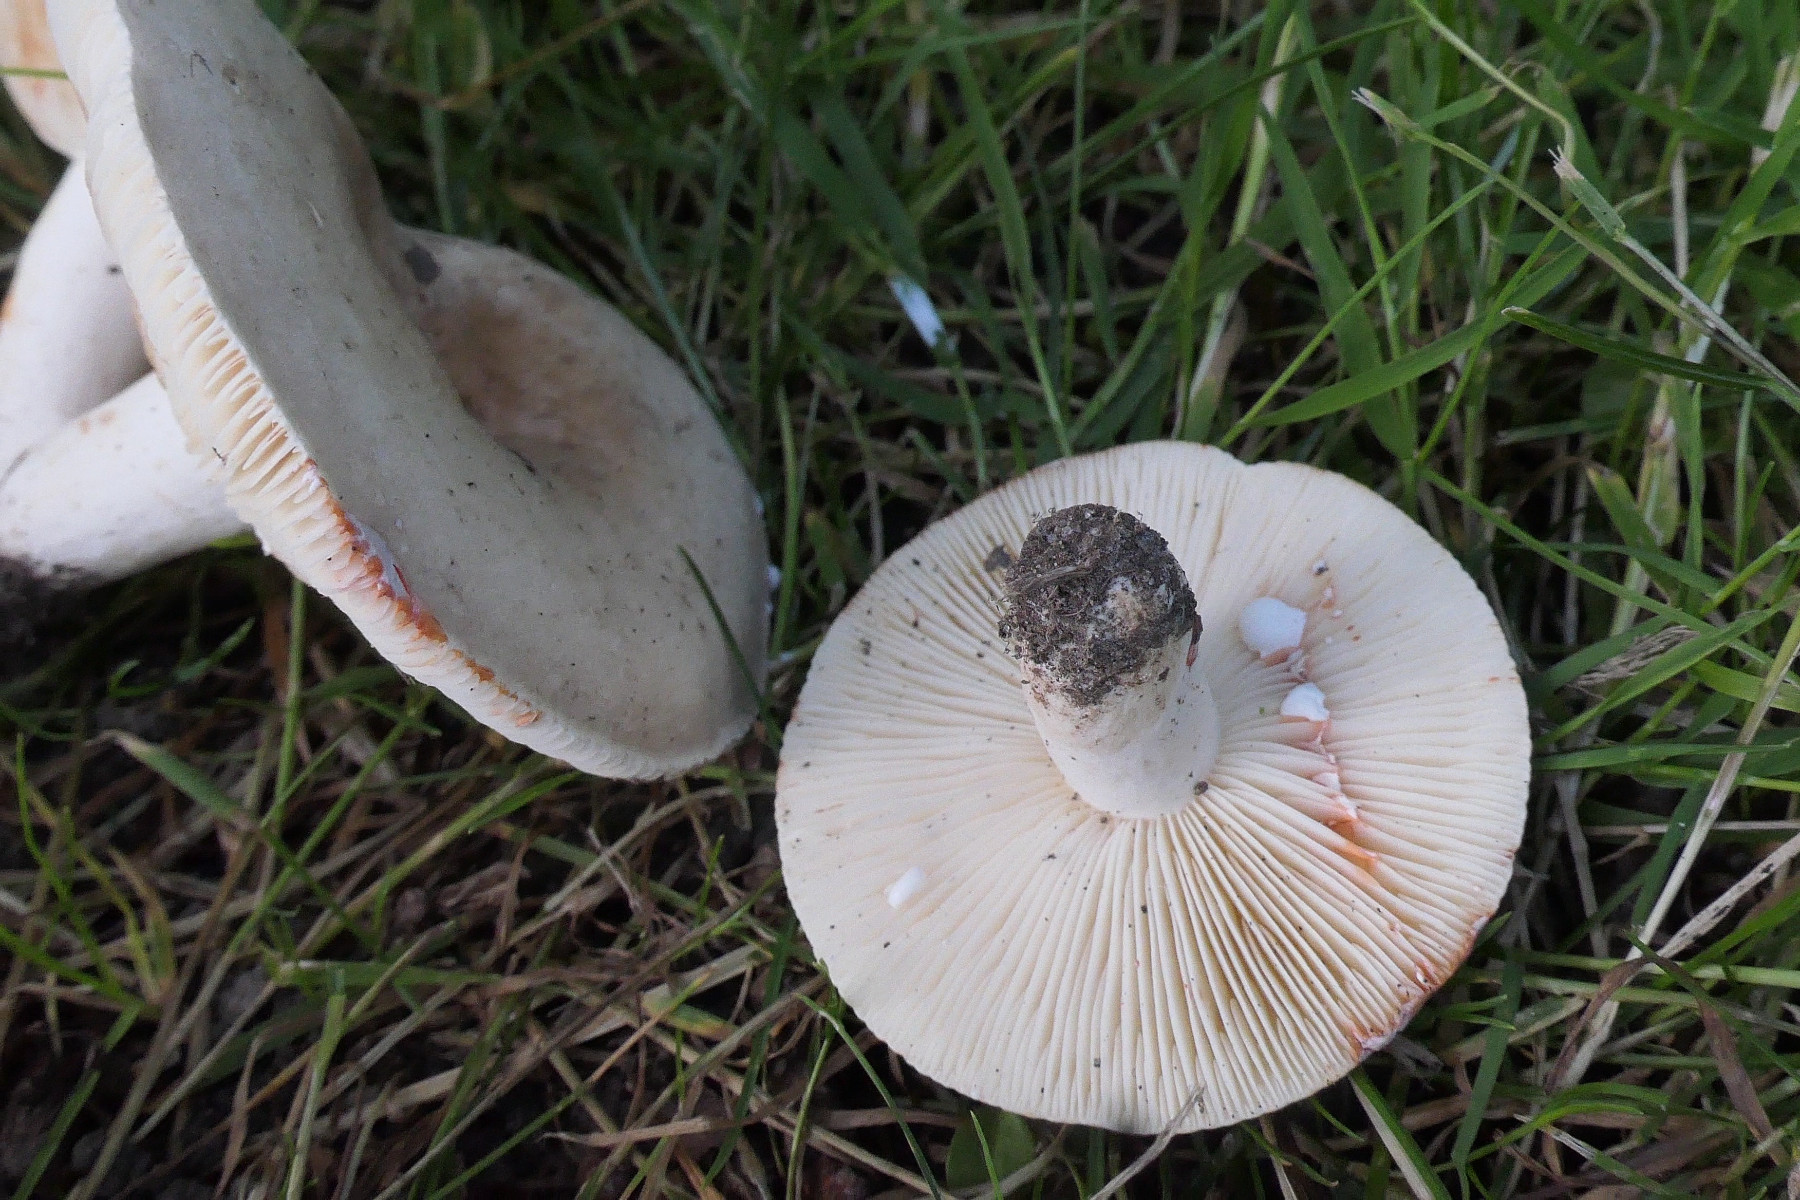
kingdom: Fungi
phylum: Basidiomycota
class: Agaricomycetes
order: Russulales
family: Russulaceae
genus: Lactarius
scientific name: Lactarius azonites
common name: røggrå mælkehat
